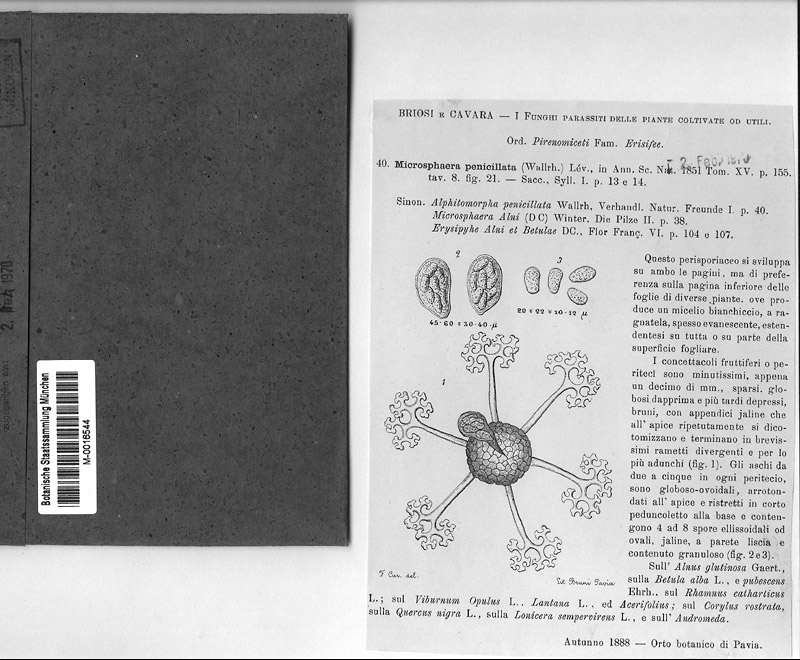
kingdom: Fungi
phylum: Ascomycota
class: Leotiomycetes
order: Helotiales
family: Erysiphaceae
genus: Erysiphe
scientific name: Erysiphe penicillata
